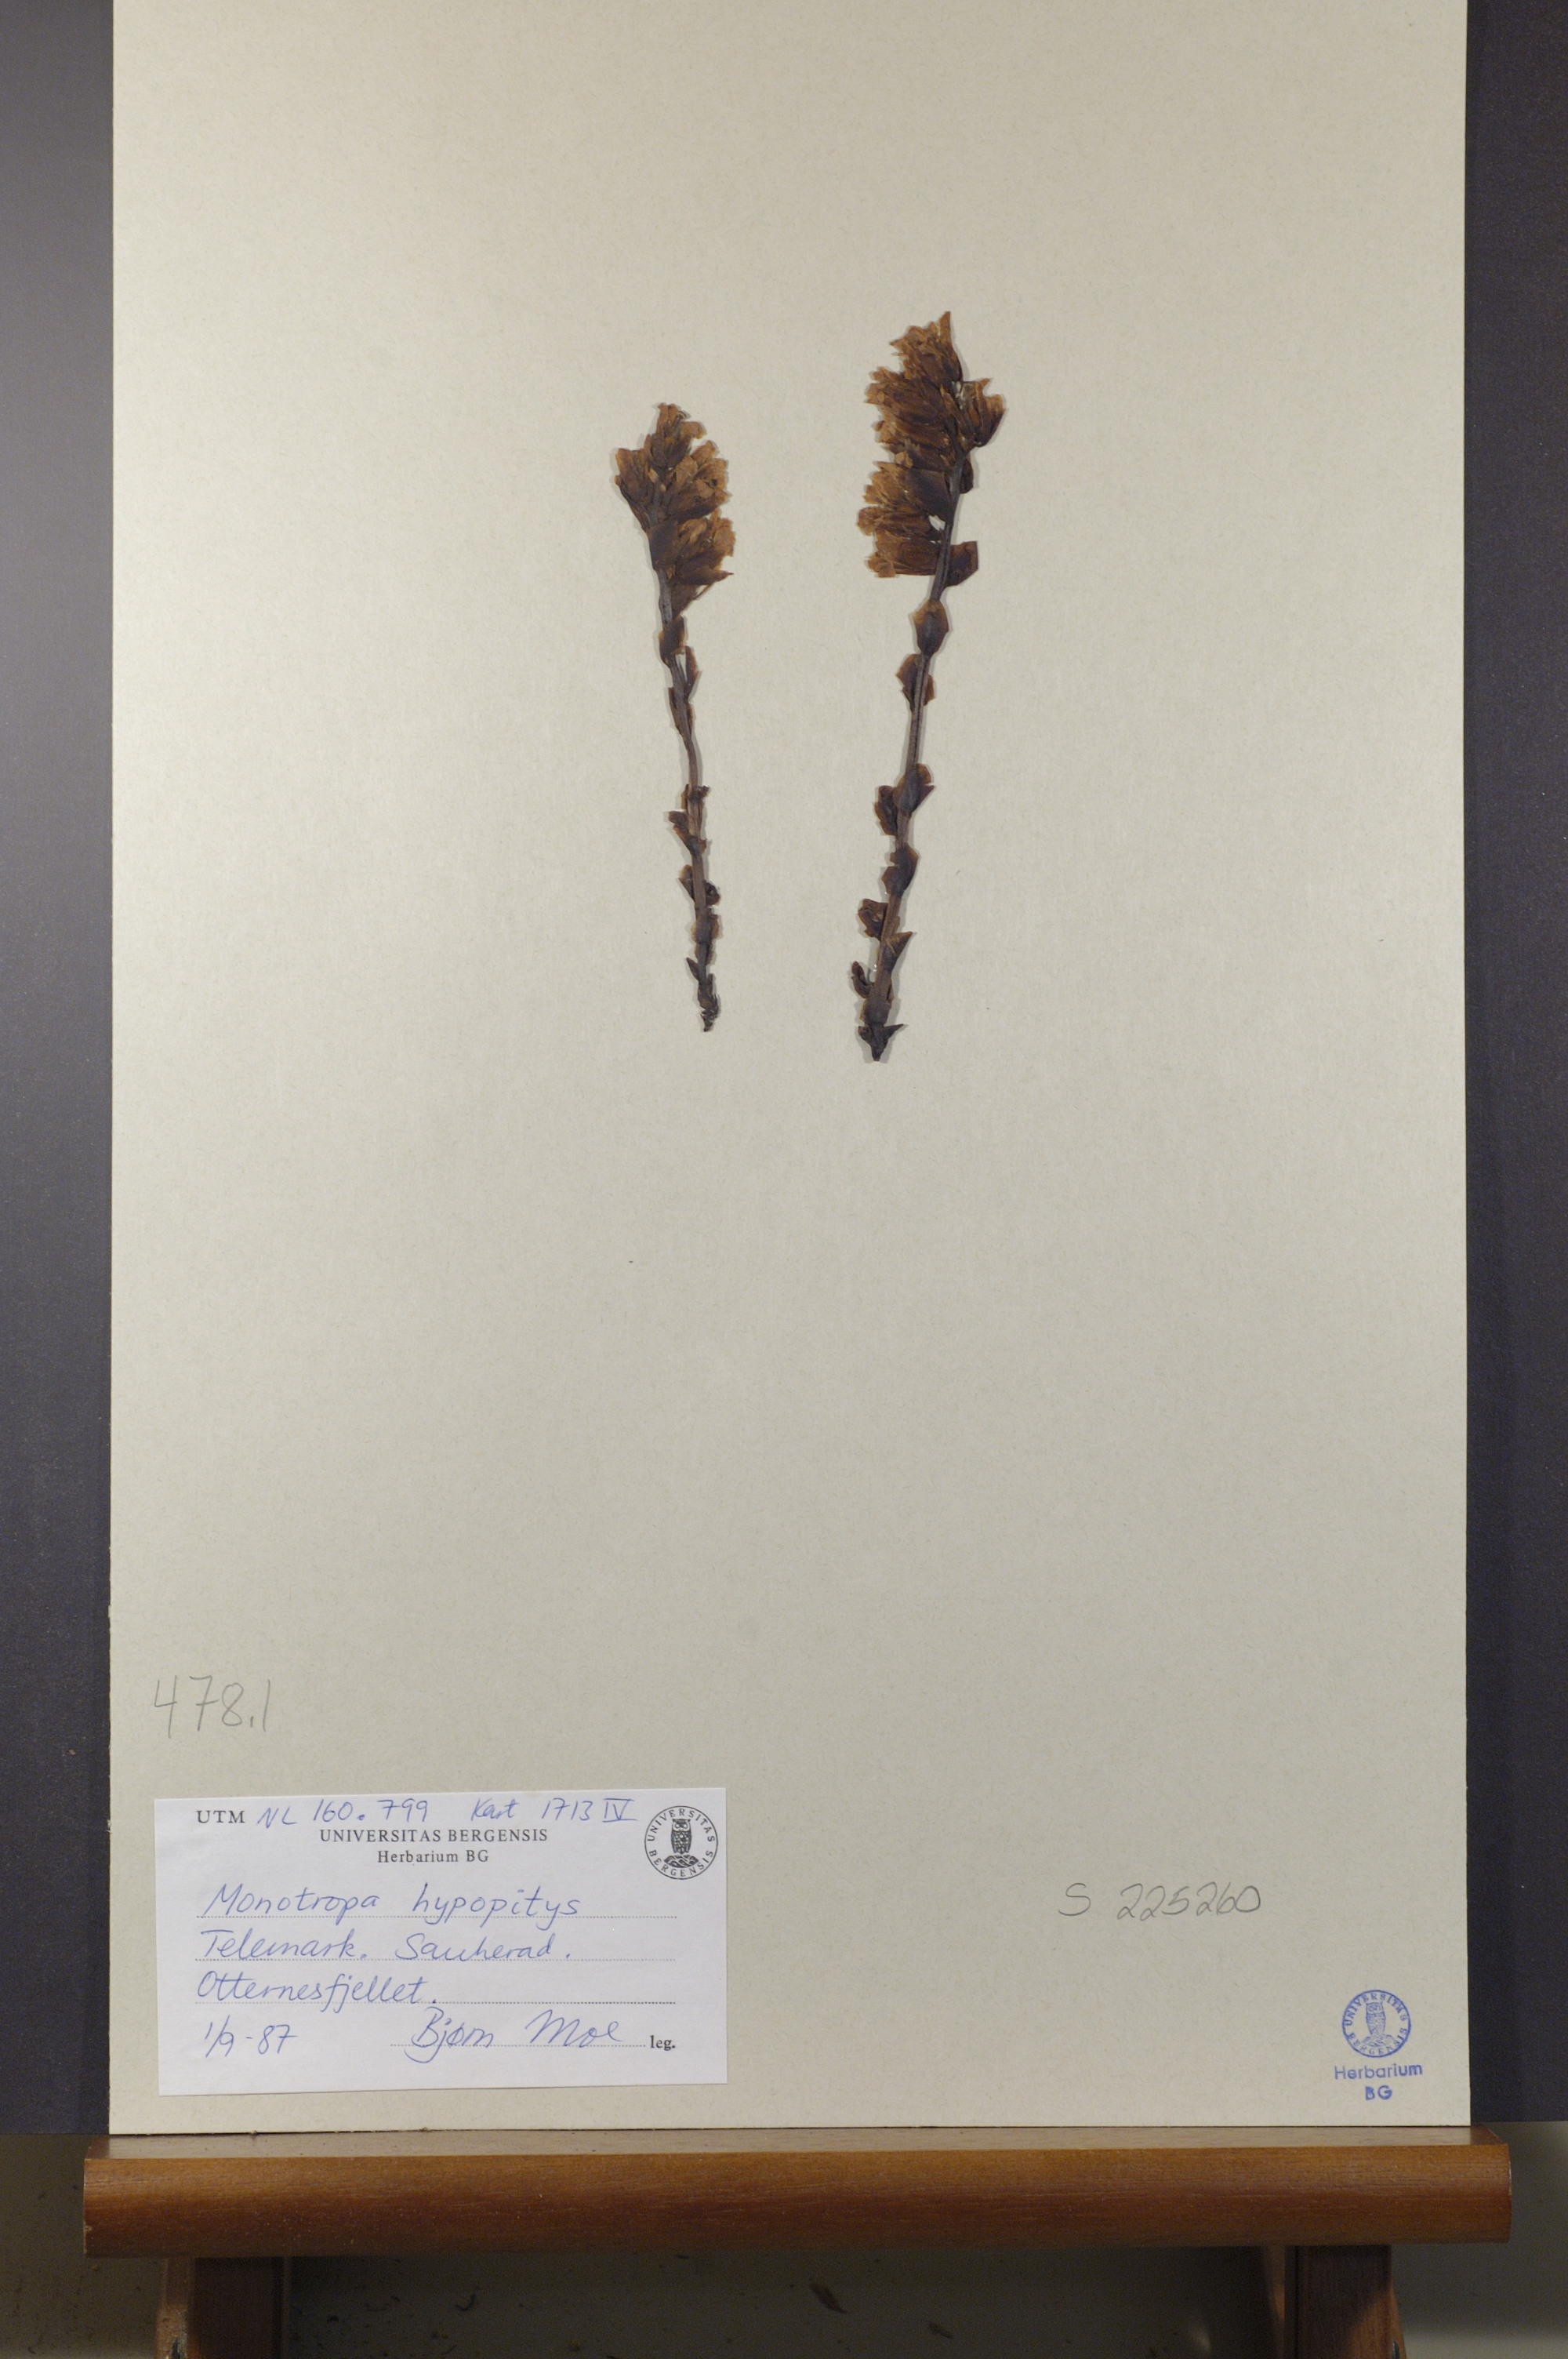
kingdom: Plantae
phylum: Tracheophyta
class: Magnoliopsida
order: Ericales
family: Ericaceae
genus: Hypopitys
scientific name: Hypopitys monotropa
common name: Yellow bird's-nest
